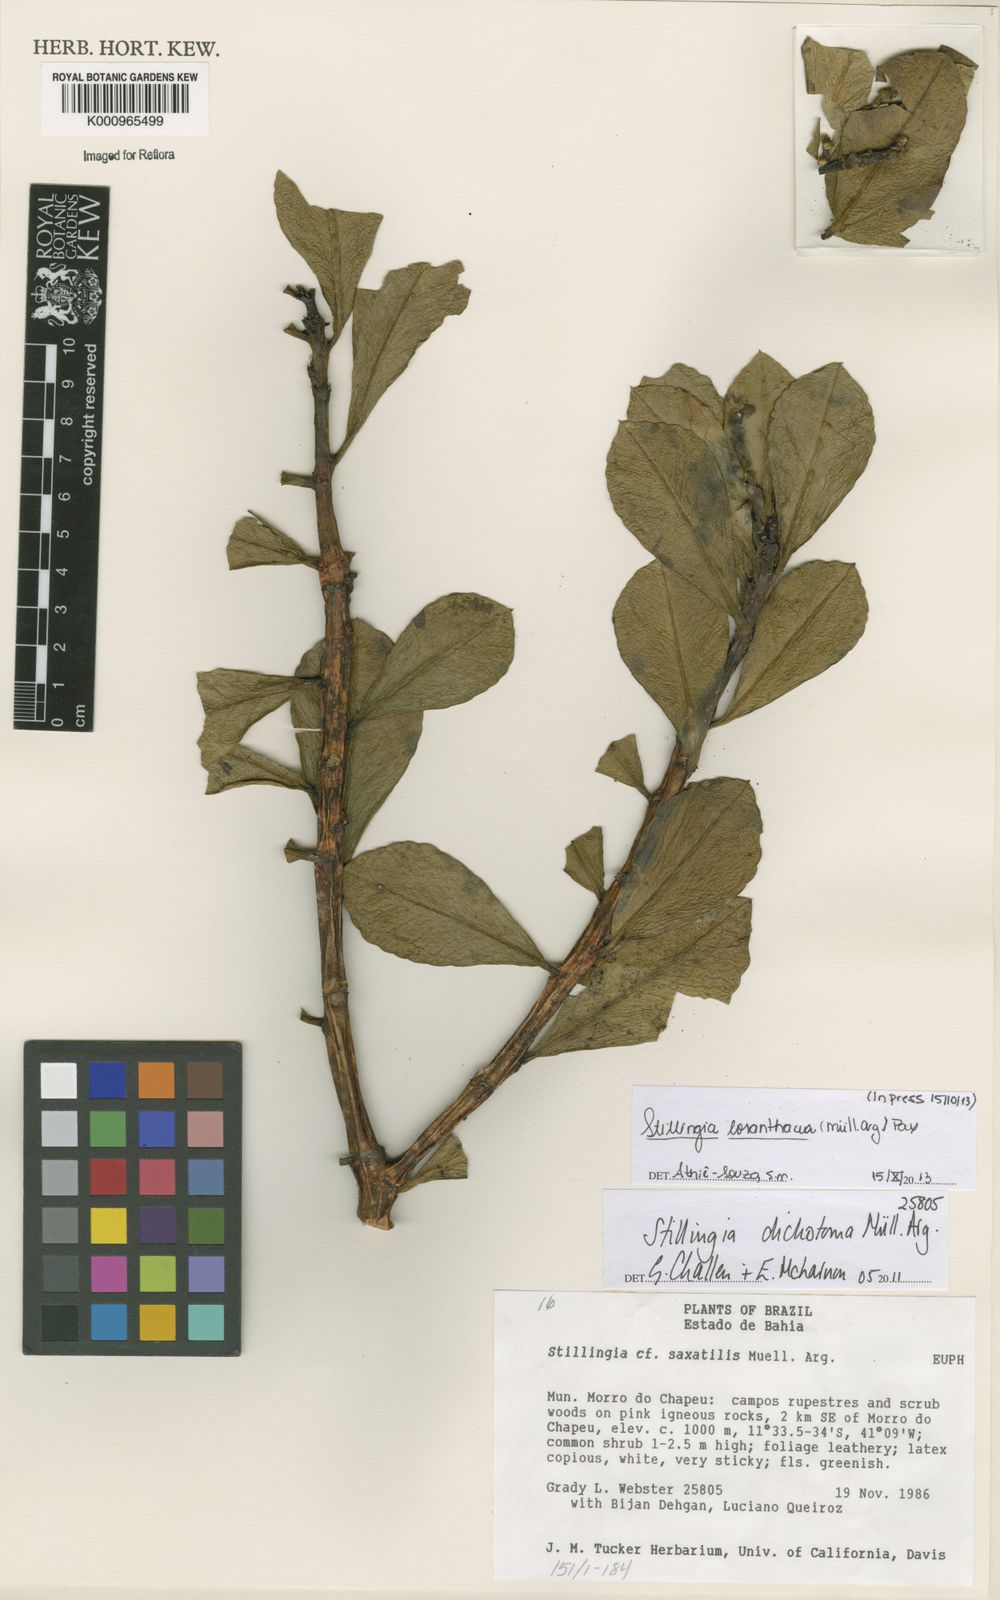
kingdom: Plantae
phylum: Tracheophyta
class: Magnoliopsida
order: Malpighiales
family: Euphorbiaceae
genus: Stillingia
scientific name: Stillingia saxatilis
